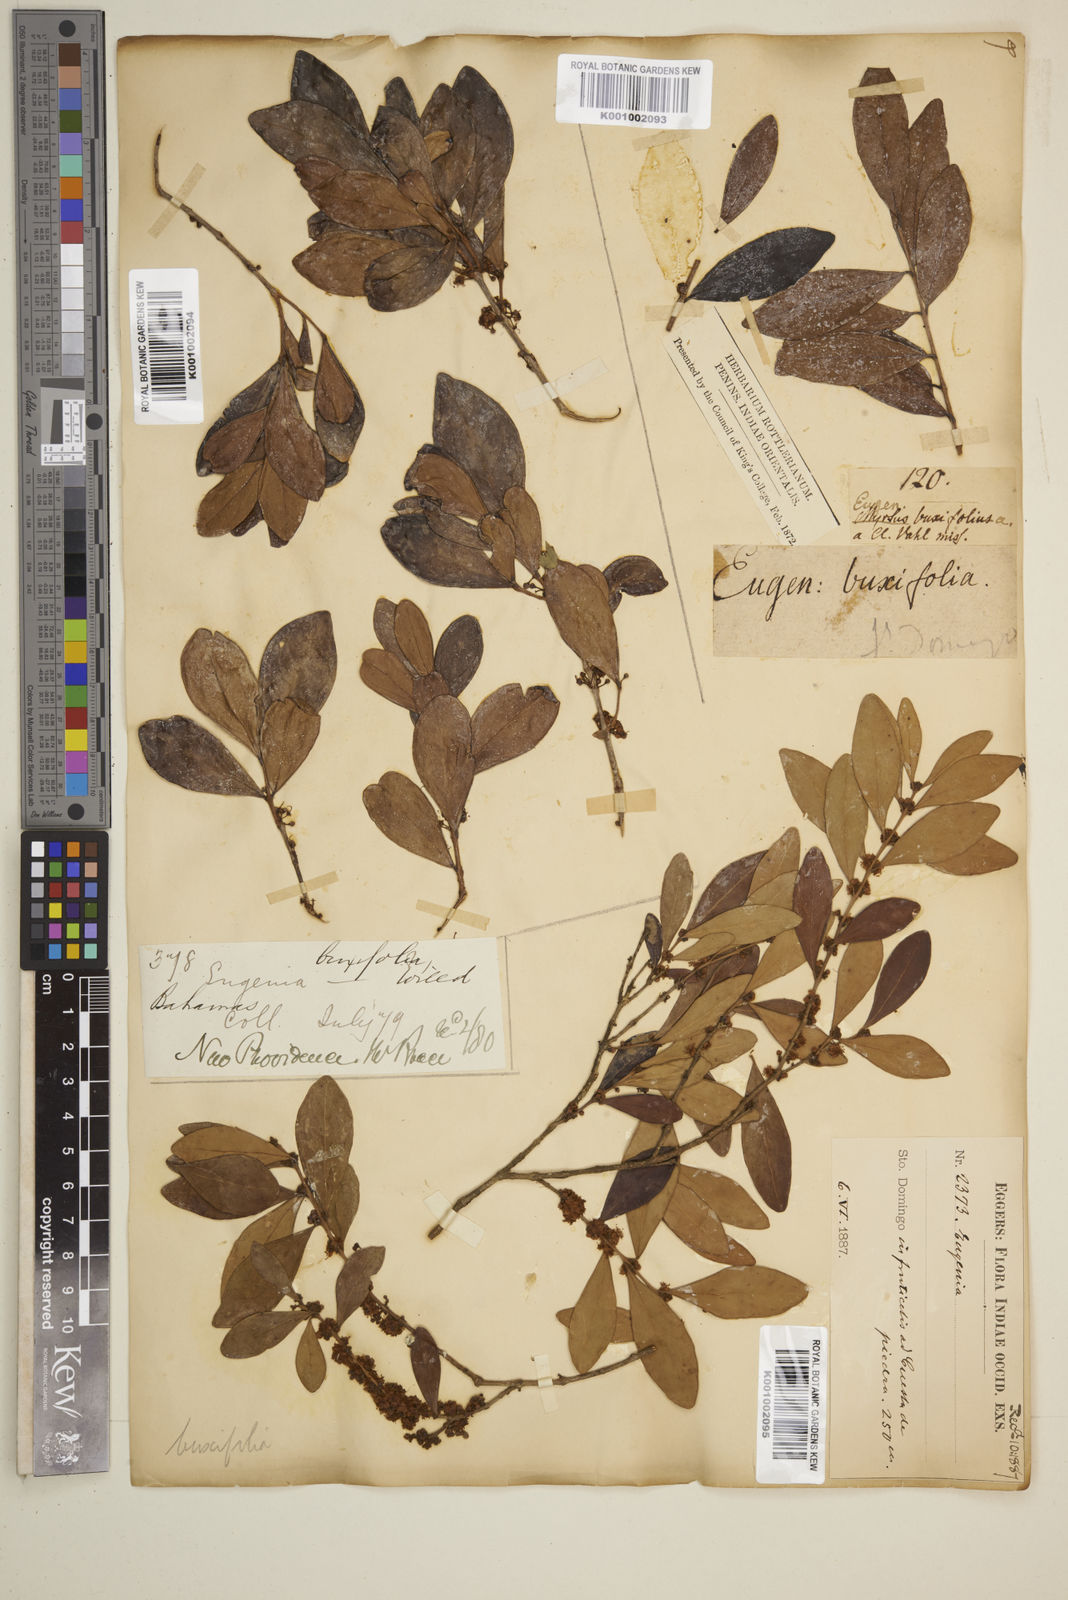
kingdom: Plantae
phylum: Tracheophyta
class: Magnoliopsida
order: Myrtales
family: Myrtaceae
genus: Eugenia
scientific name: Eugenia buxifolia
